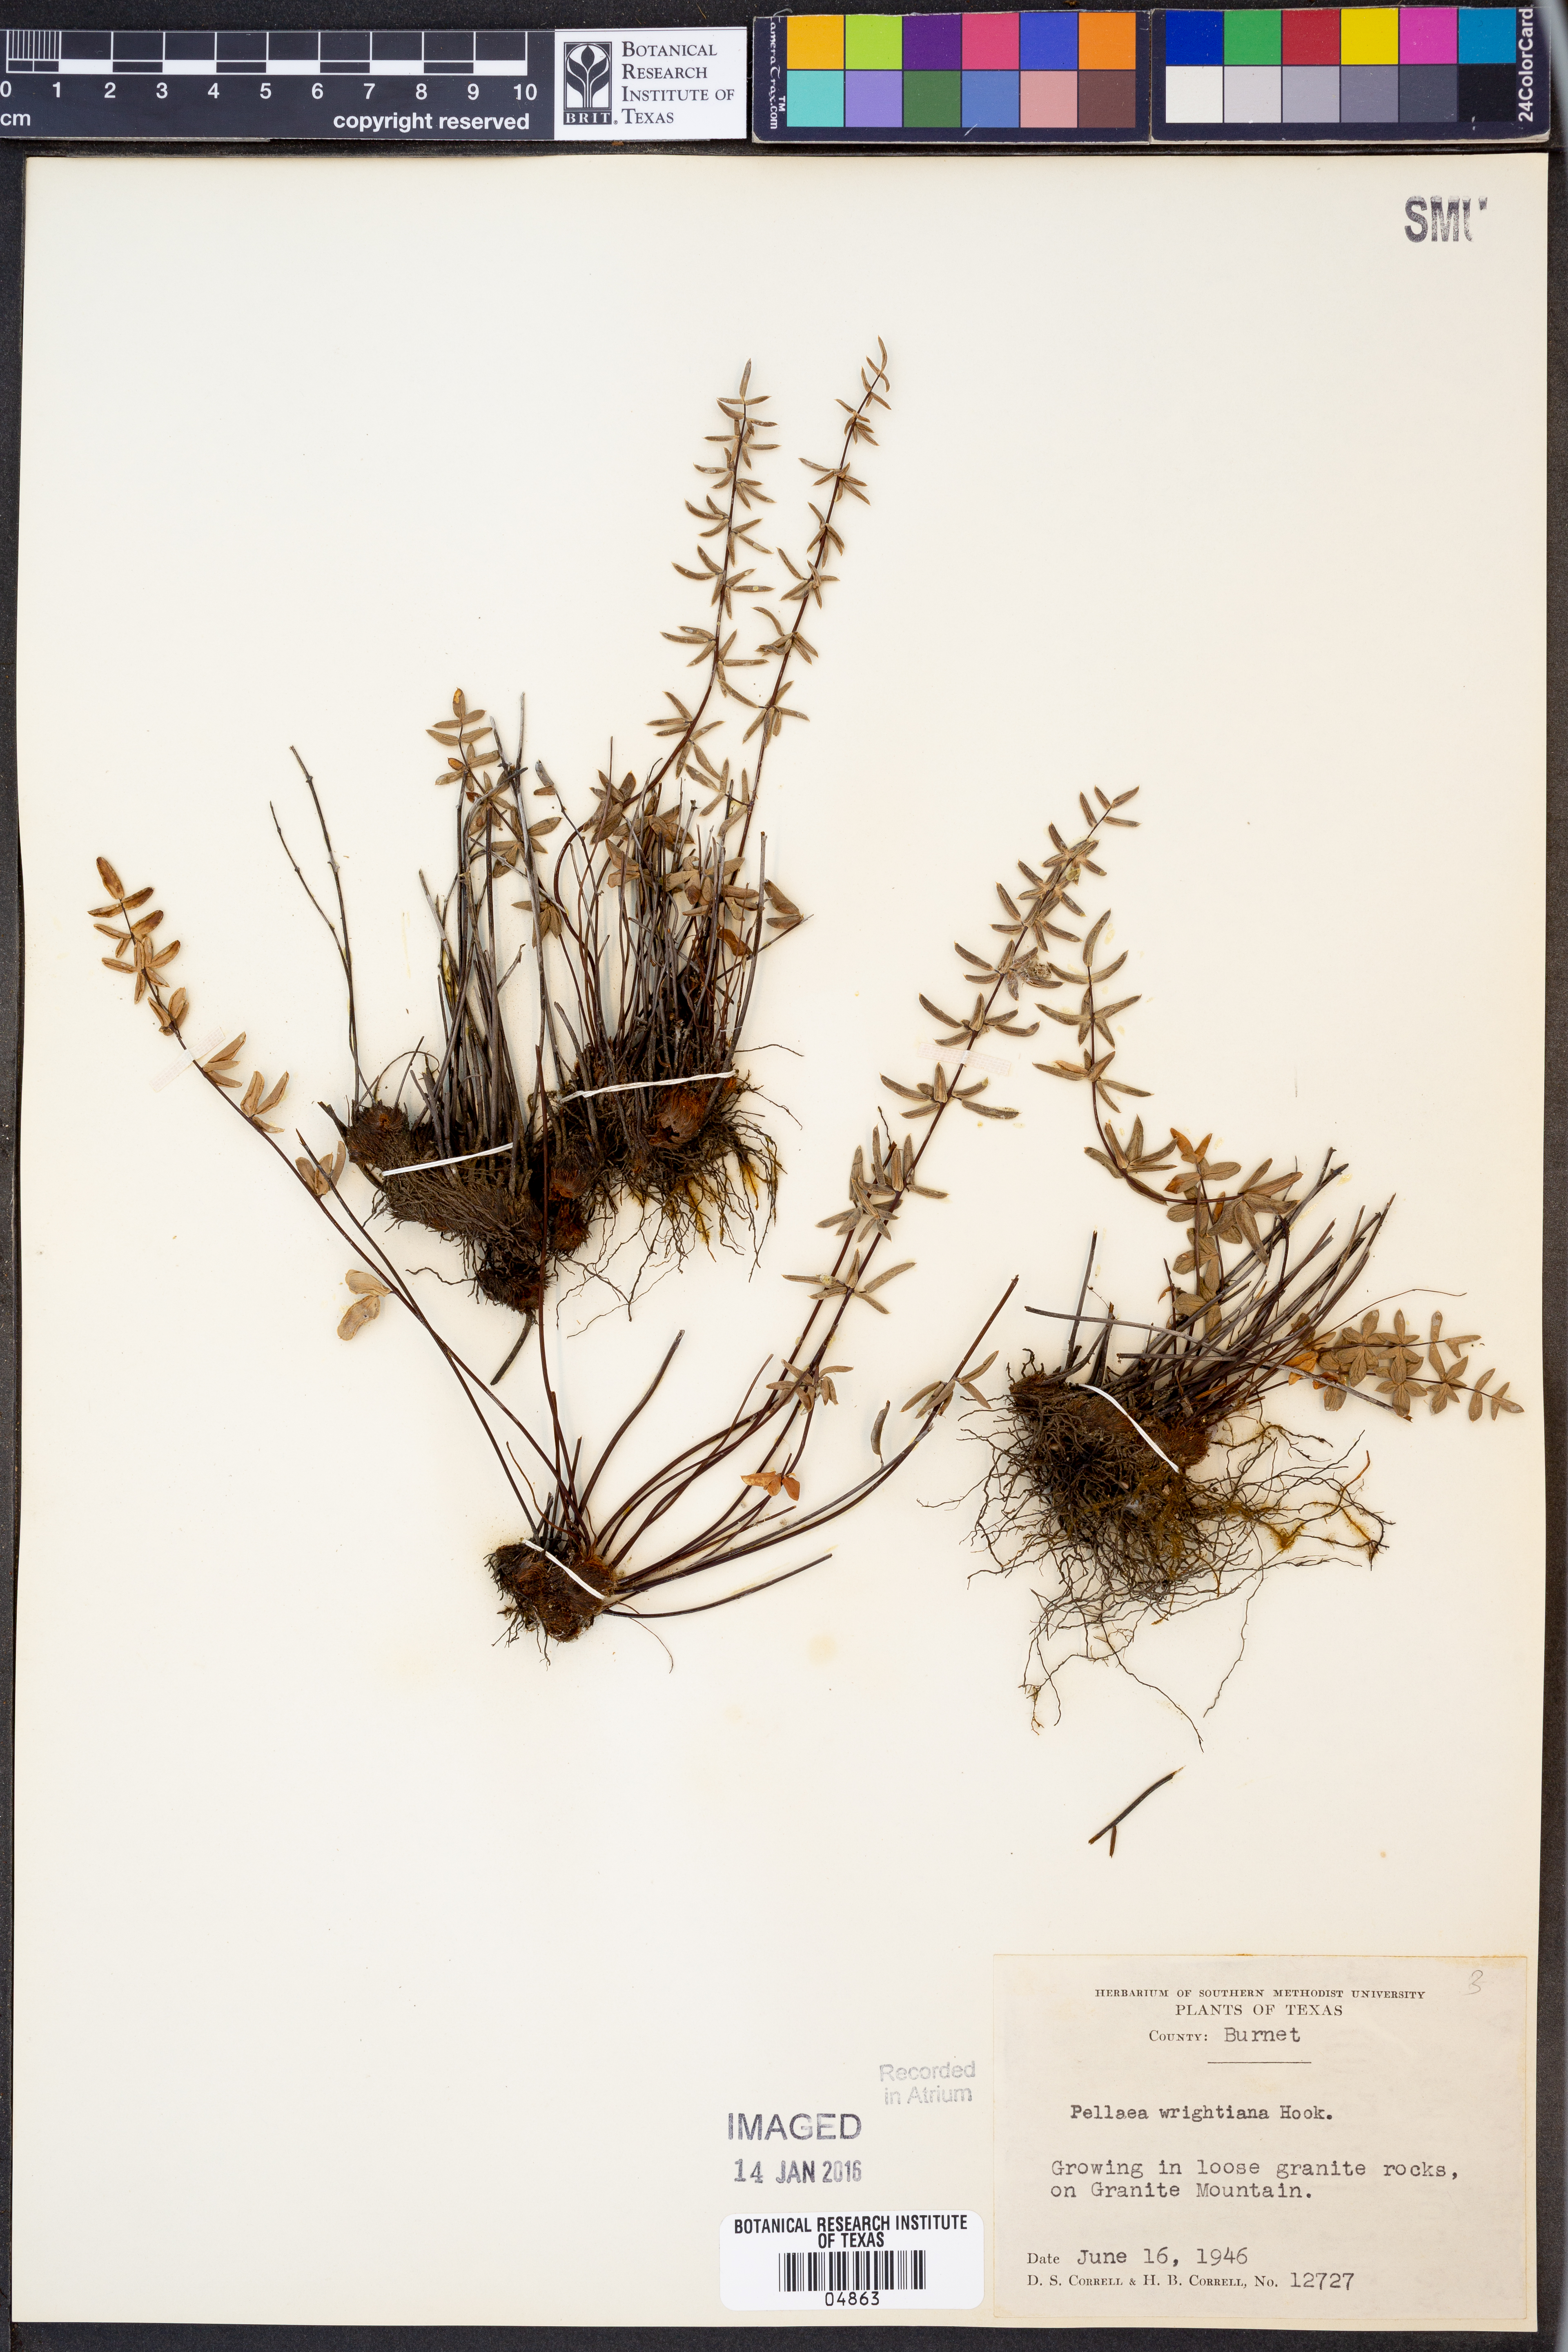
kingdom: Plantae
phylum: Tracheophyta
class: Polypodiopsida
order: Polypodiales
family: Pteridaceae
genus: Pellaea
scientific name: Pellaea wrightiana
